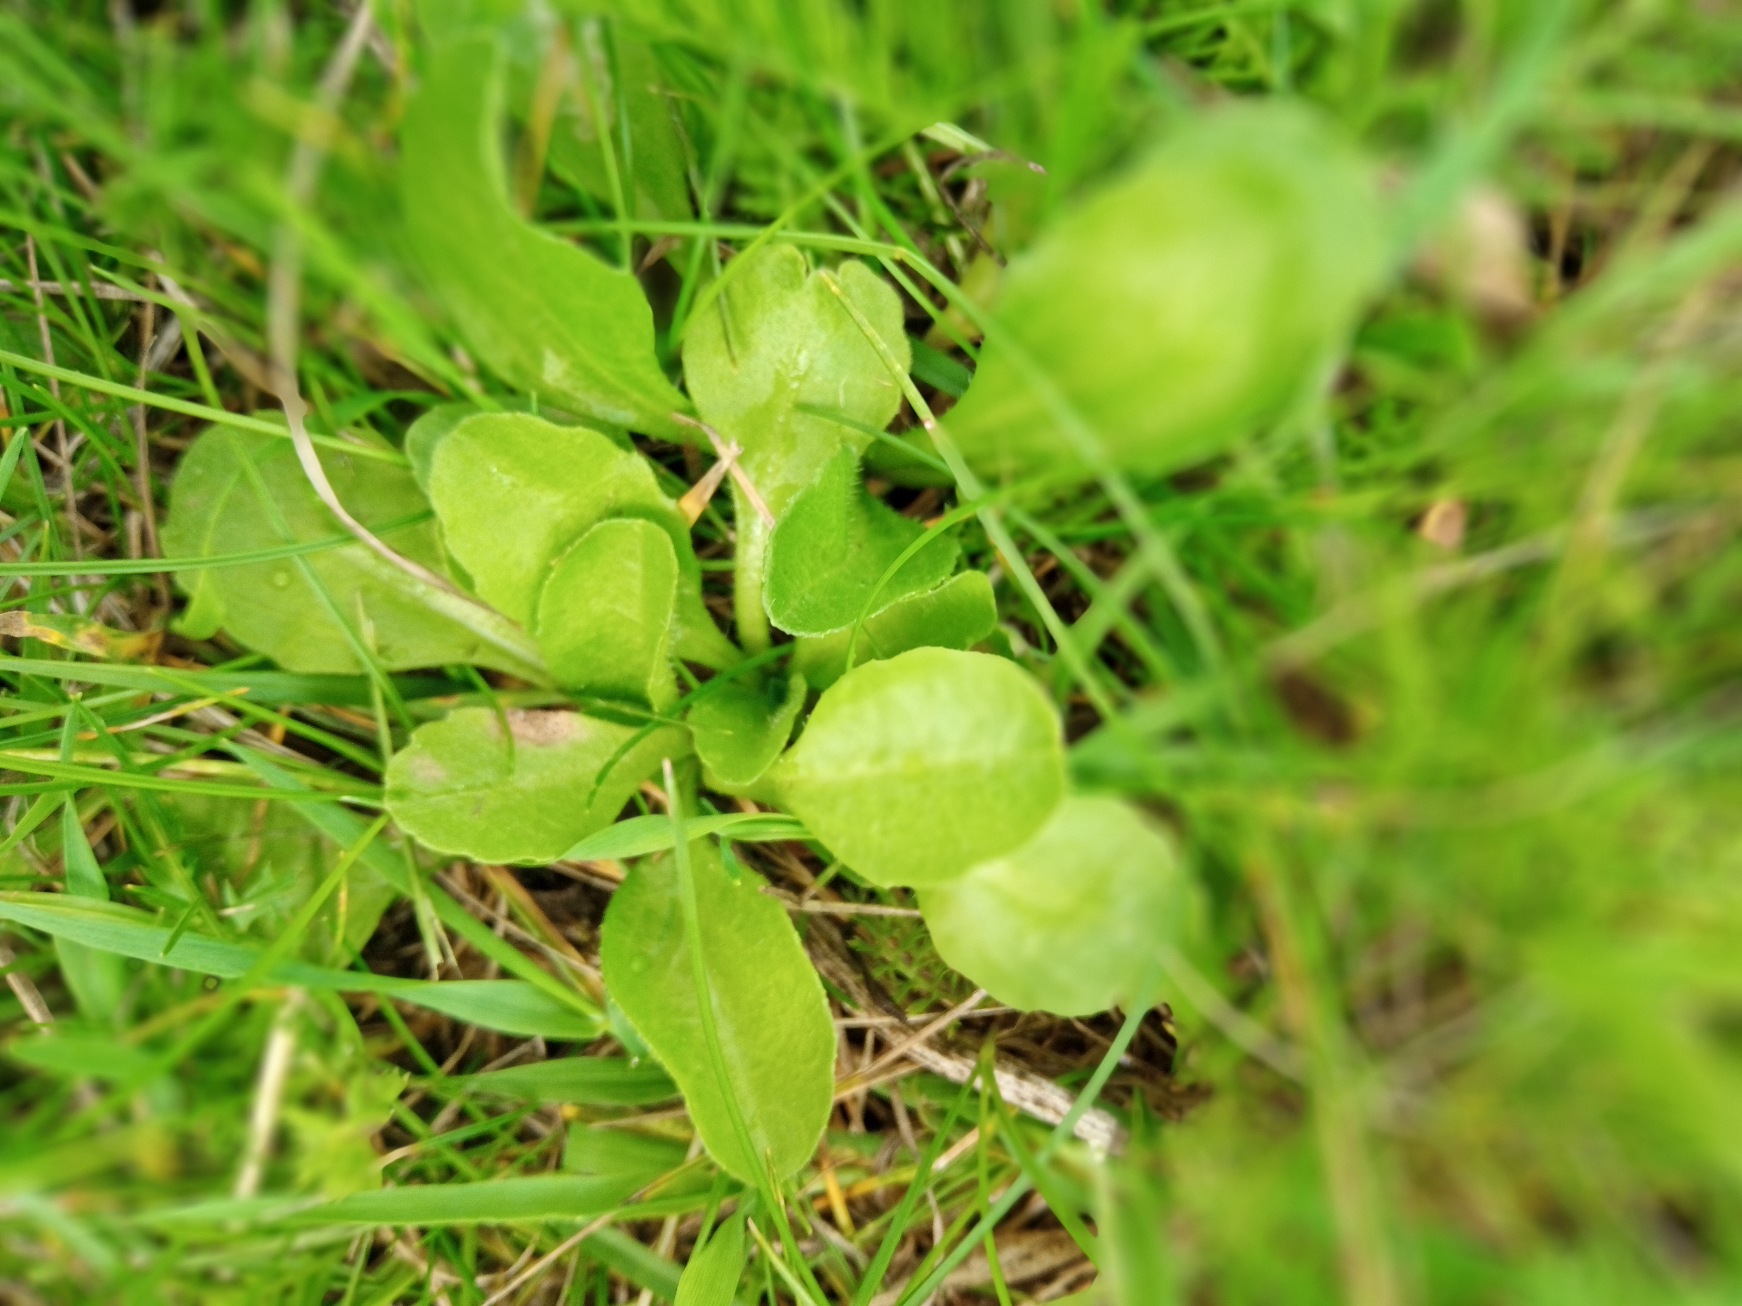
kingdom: Plantae
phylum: Tracheophyta
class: Magnoliopsida
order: Asterales
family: Asteraceae
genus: Bellis
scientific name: Bellis perennis
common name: Tusindfryd
